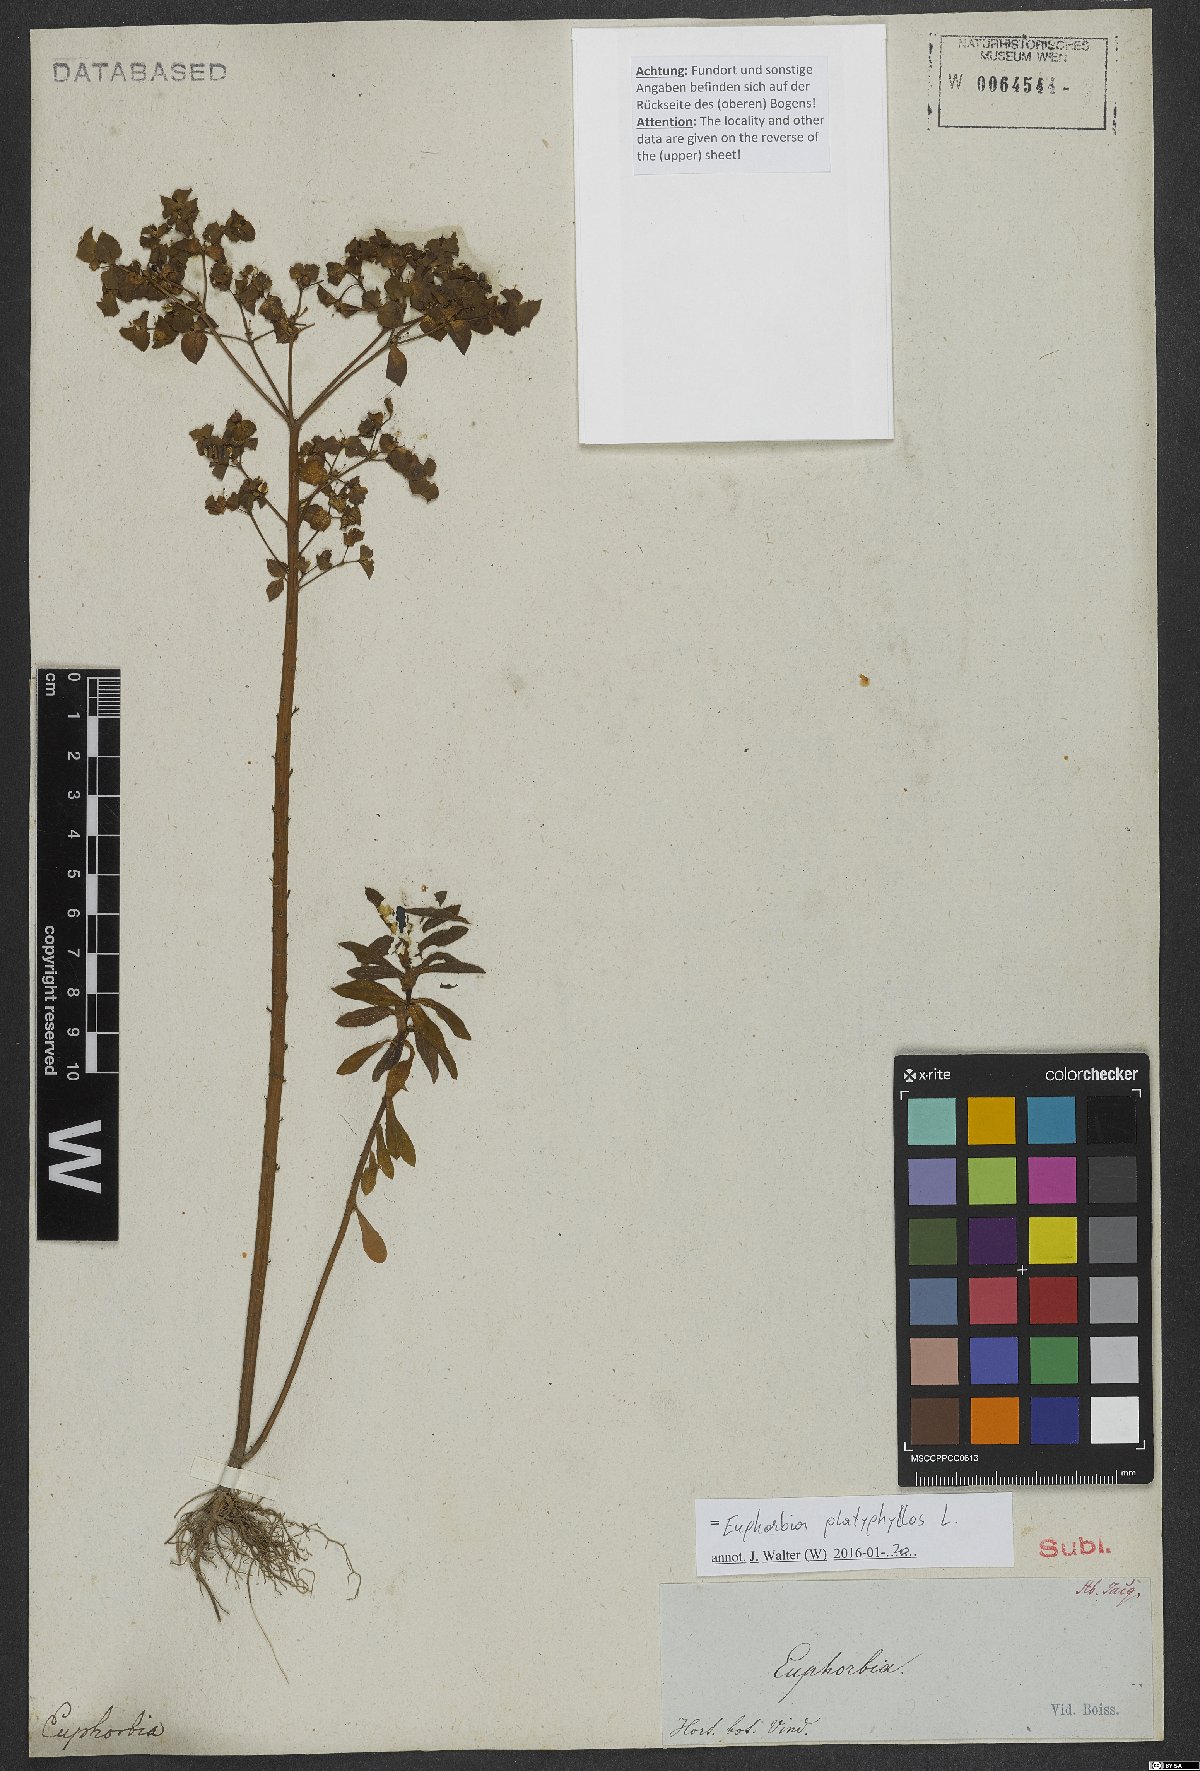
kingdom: Plantae
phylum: Tracheophyta
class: Magnoliopsida
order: Malpighiales
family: Euphorbiaceae
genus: Euphorbia
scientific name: Euphorbia platyphyllos
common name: Broad-leaved spurge
